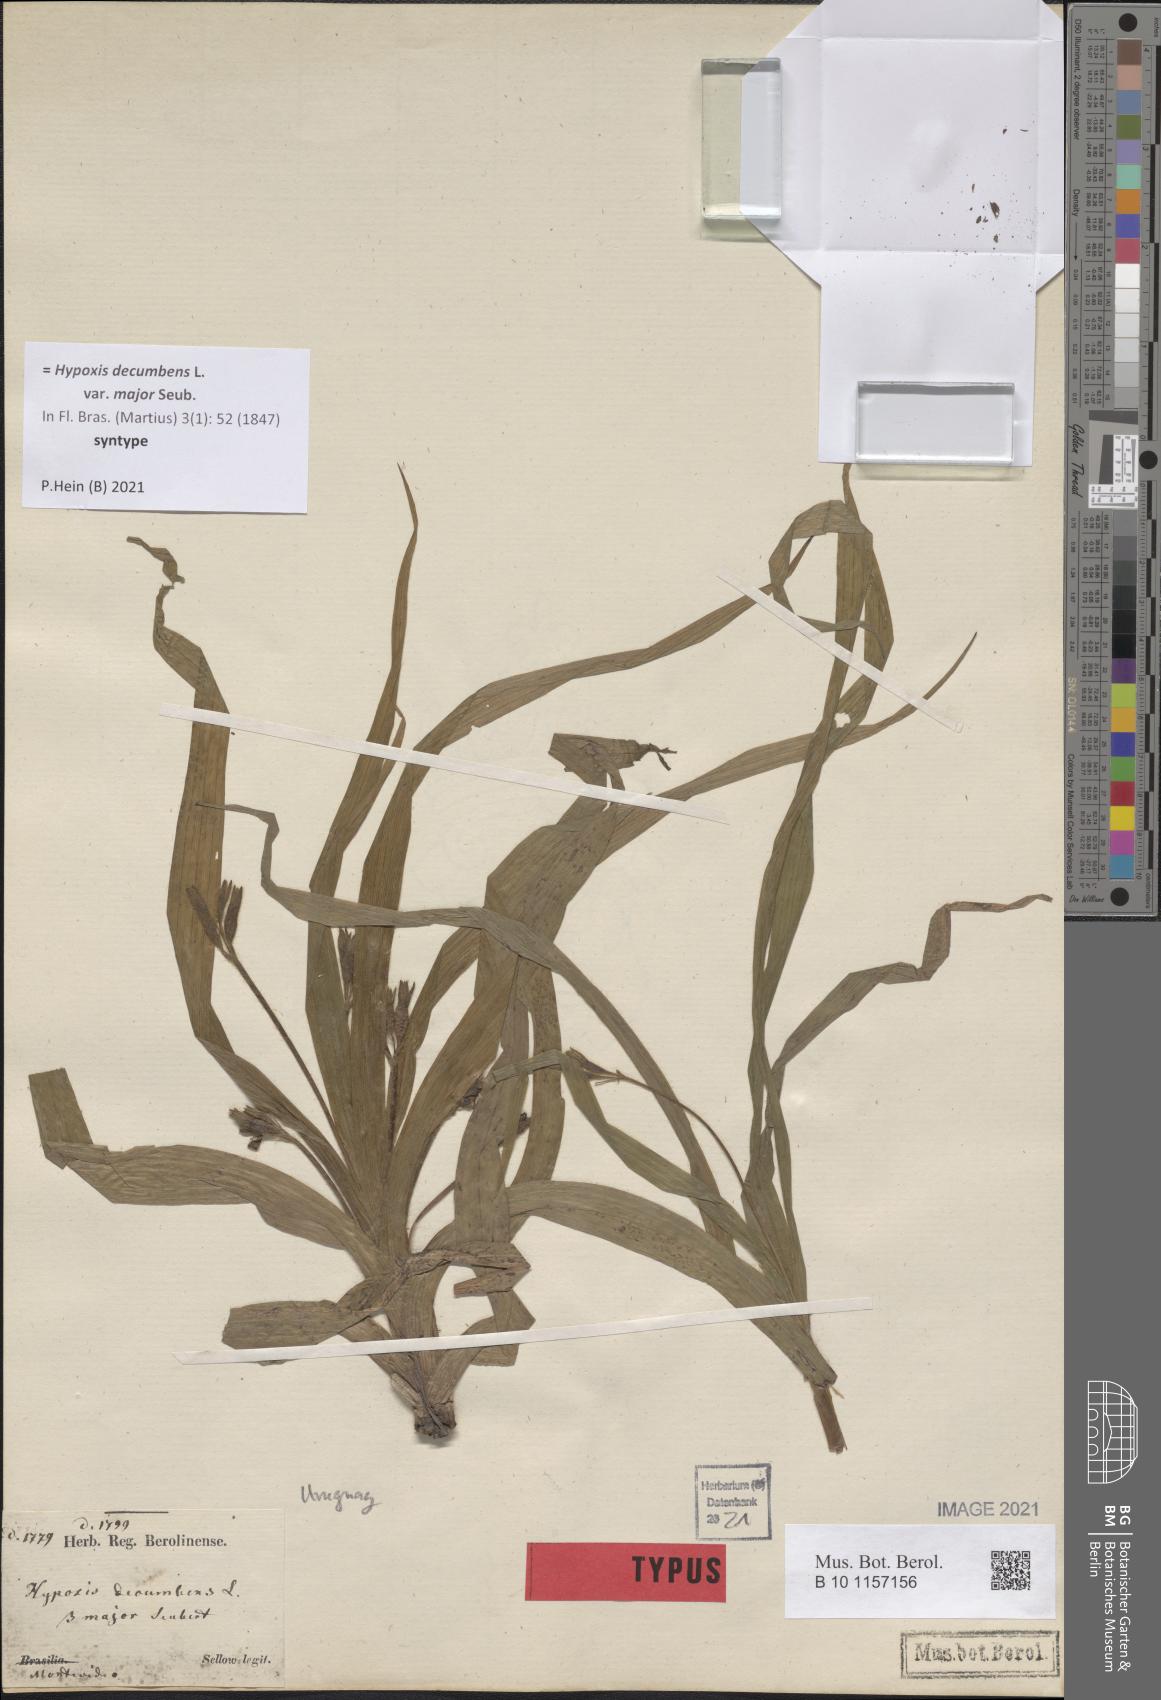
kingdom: Plantae
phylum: Tracheophyta
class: Liliopsida
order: Asparagales
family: Hypoxidaceae
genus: Hypoxis
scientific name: Hypoxis decumbens
